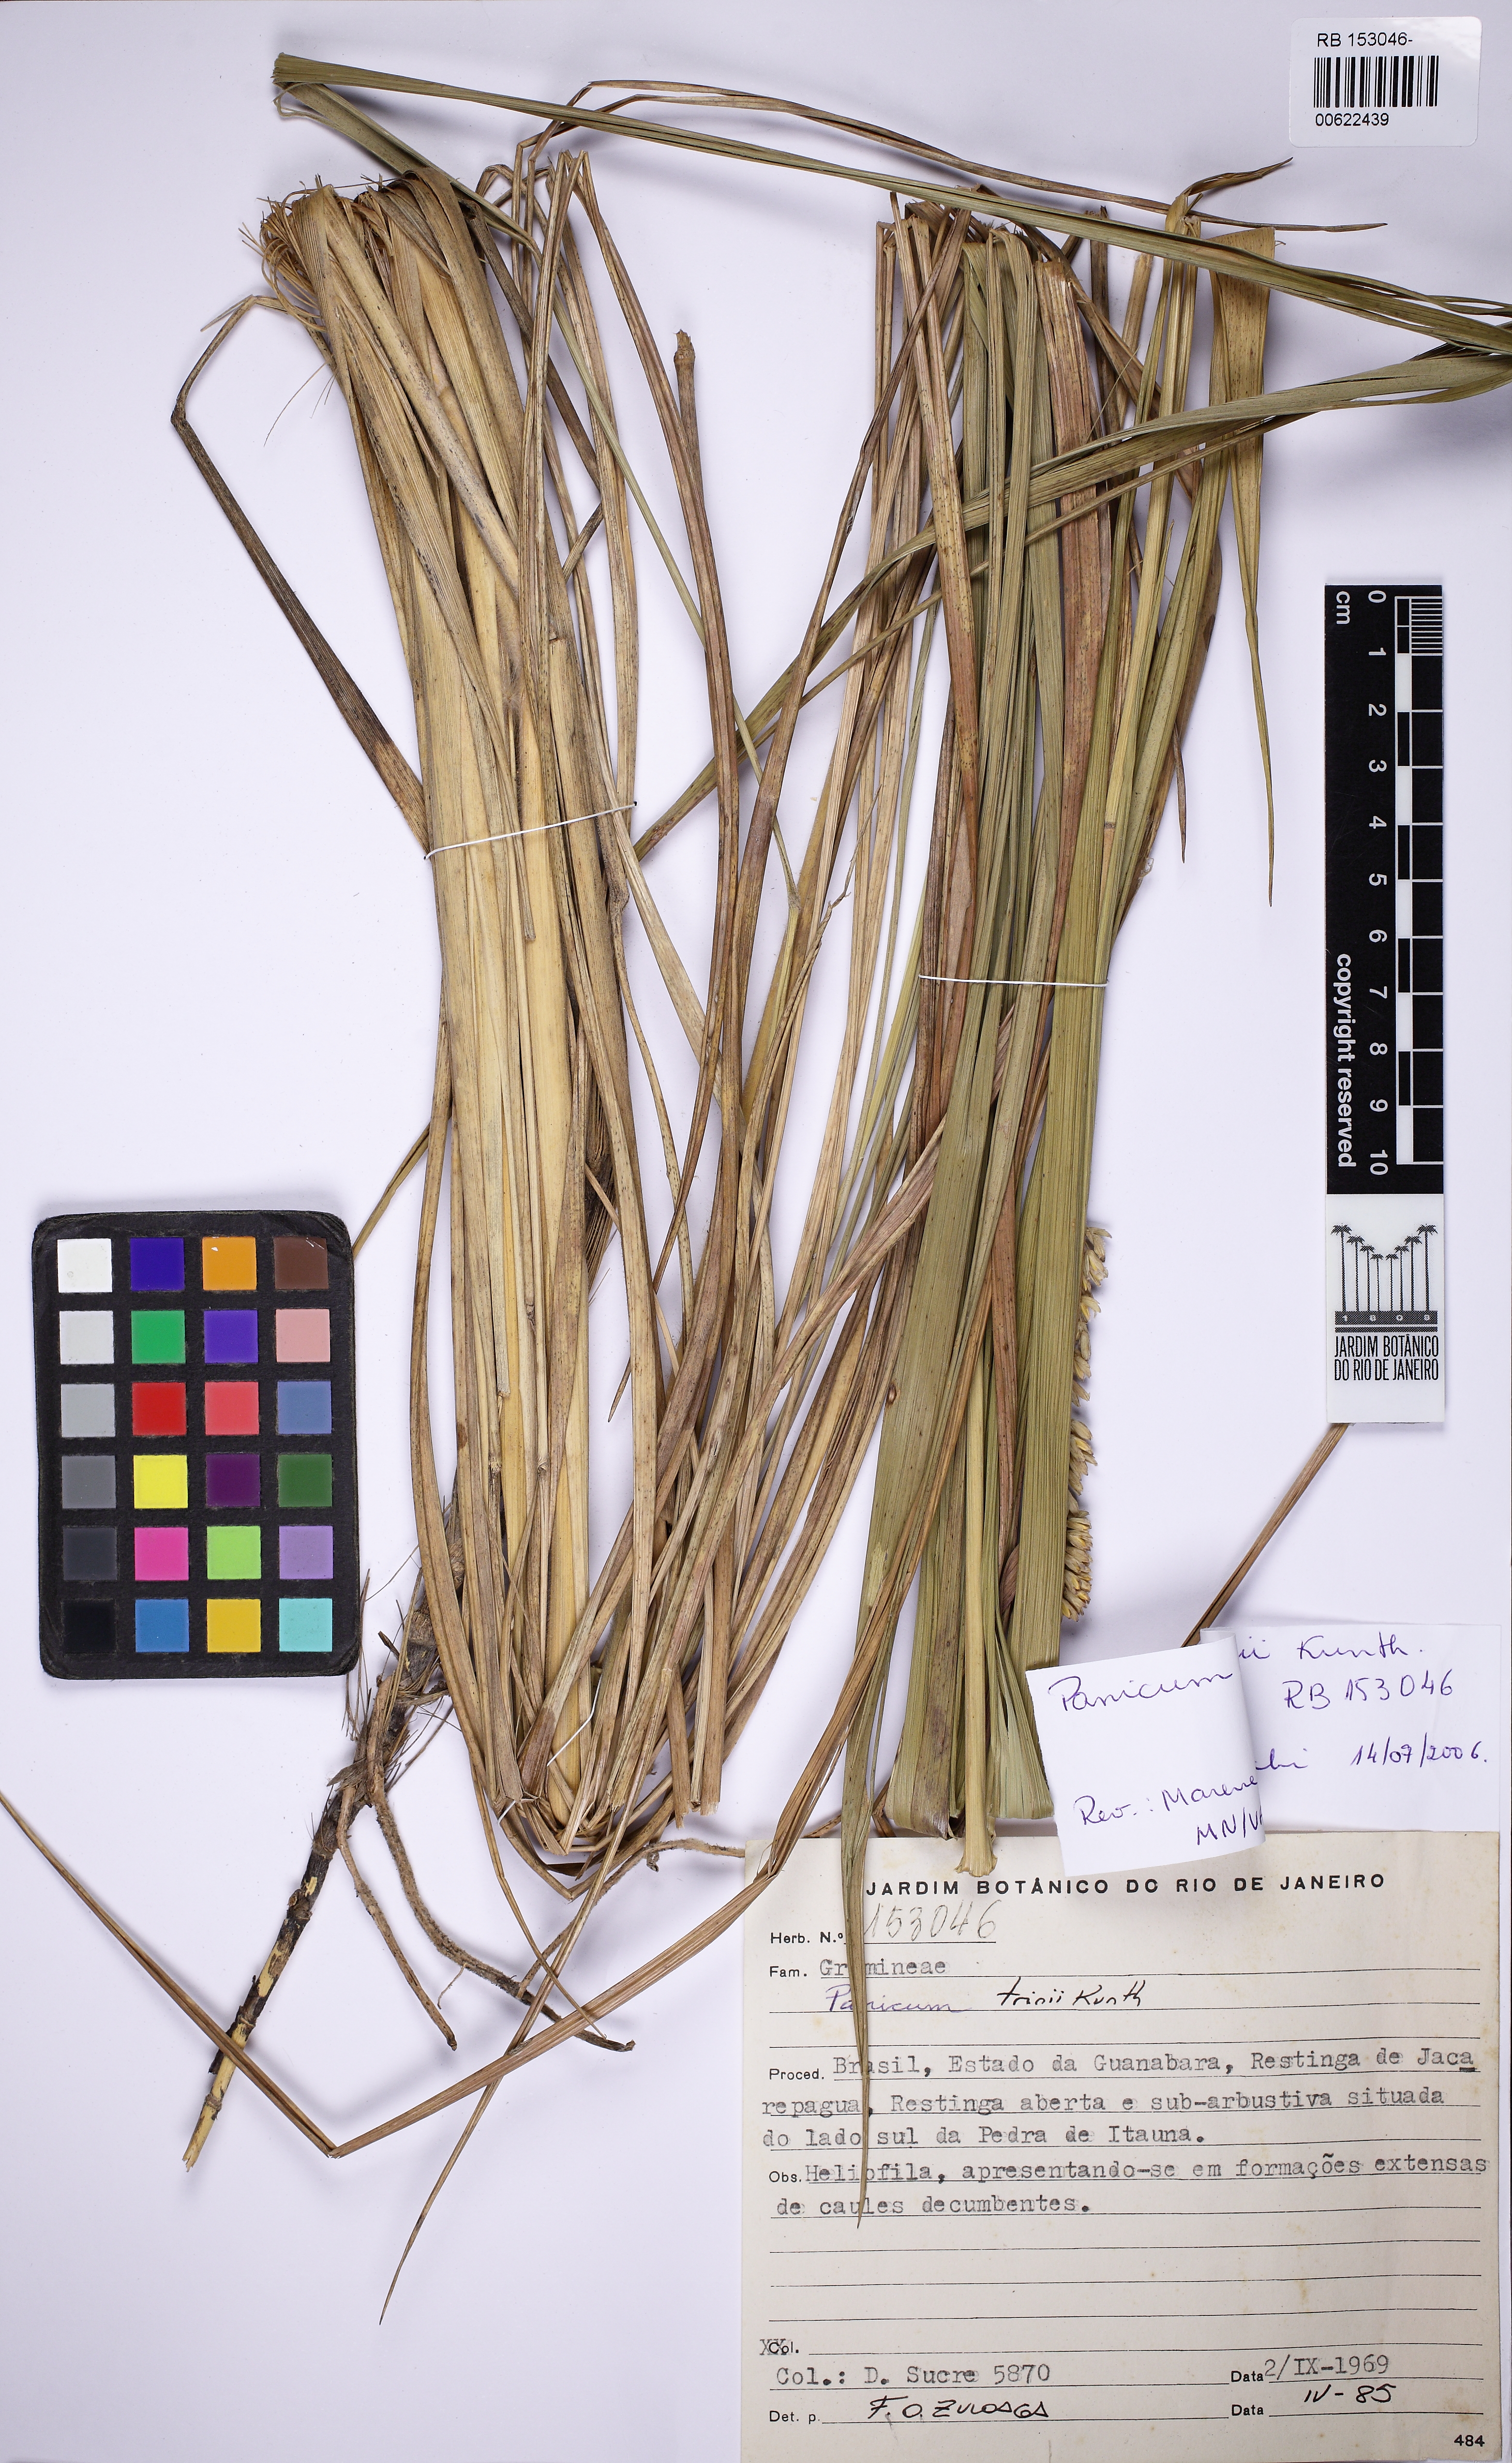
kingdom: Plantae
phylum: Tracheophyta
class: Liliopsida
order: Poales
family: Poaceae
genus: Renvoizea
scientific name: Renvoizea trinii
